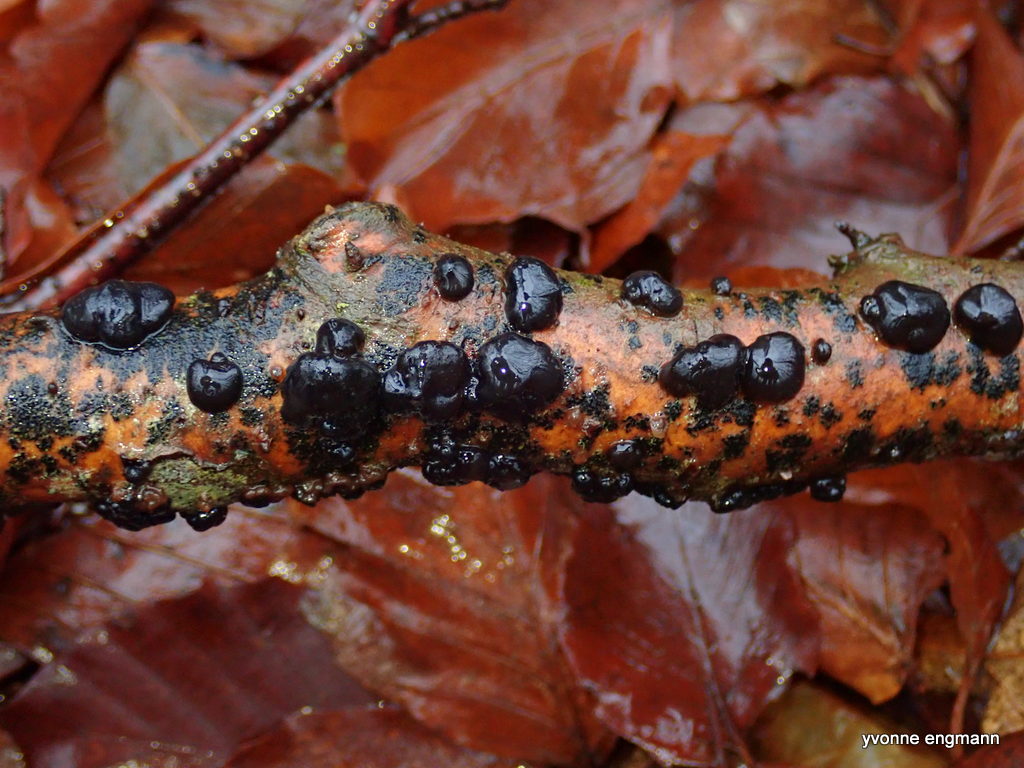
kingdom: Fungi
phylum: Basidiomycota
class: Agaricomycetes
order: Auriculariales
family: Auriculariaceae
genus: Exidia
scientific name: Exidia nigricans
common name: almindelig bævretop
